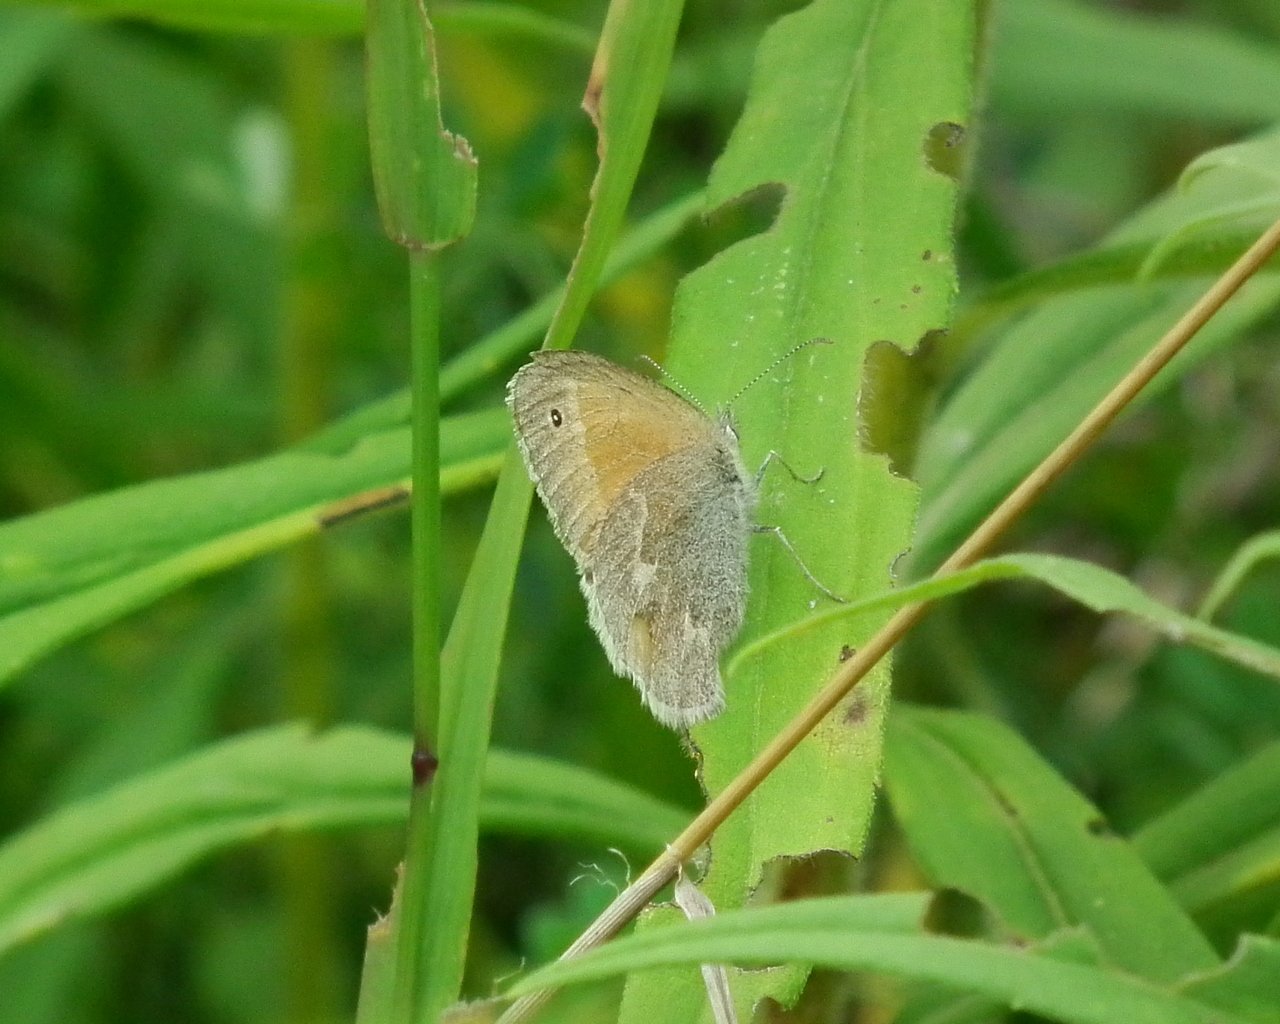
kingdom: Animalia
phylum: Arthropoda
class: Insecta
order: Lepidoptera
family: Nymphalidae
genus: Coenonympha
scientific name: Coenonympha tullia
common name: Large Heath
